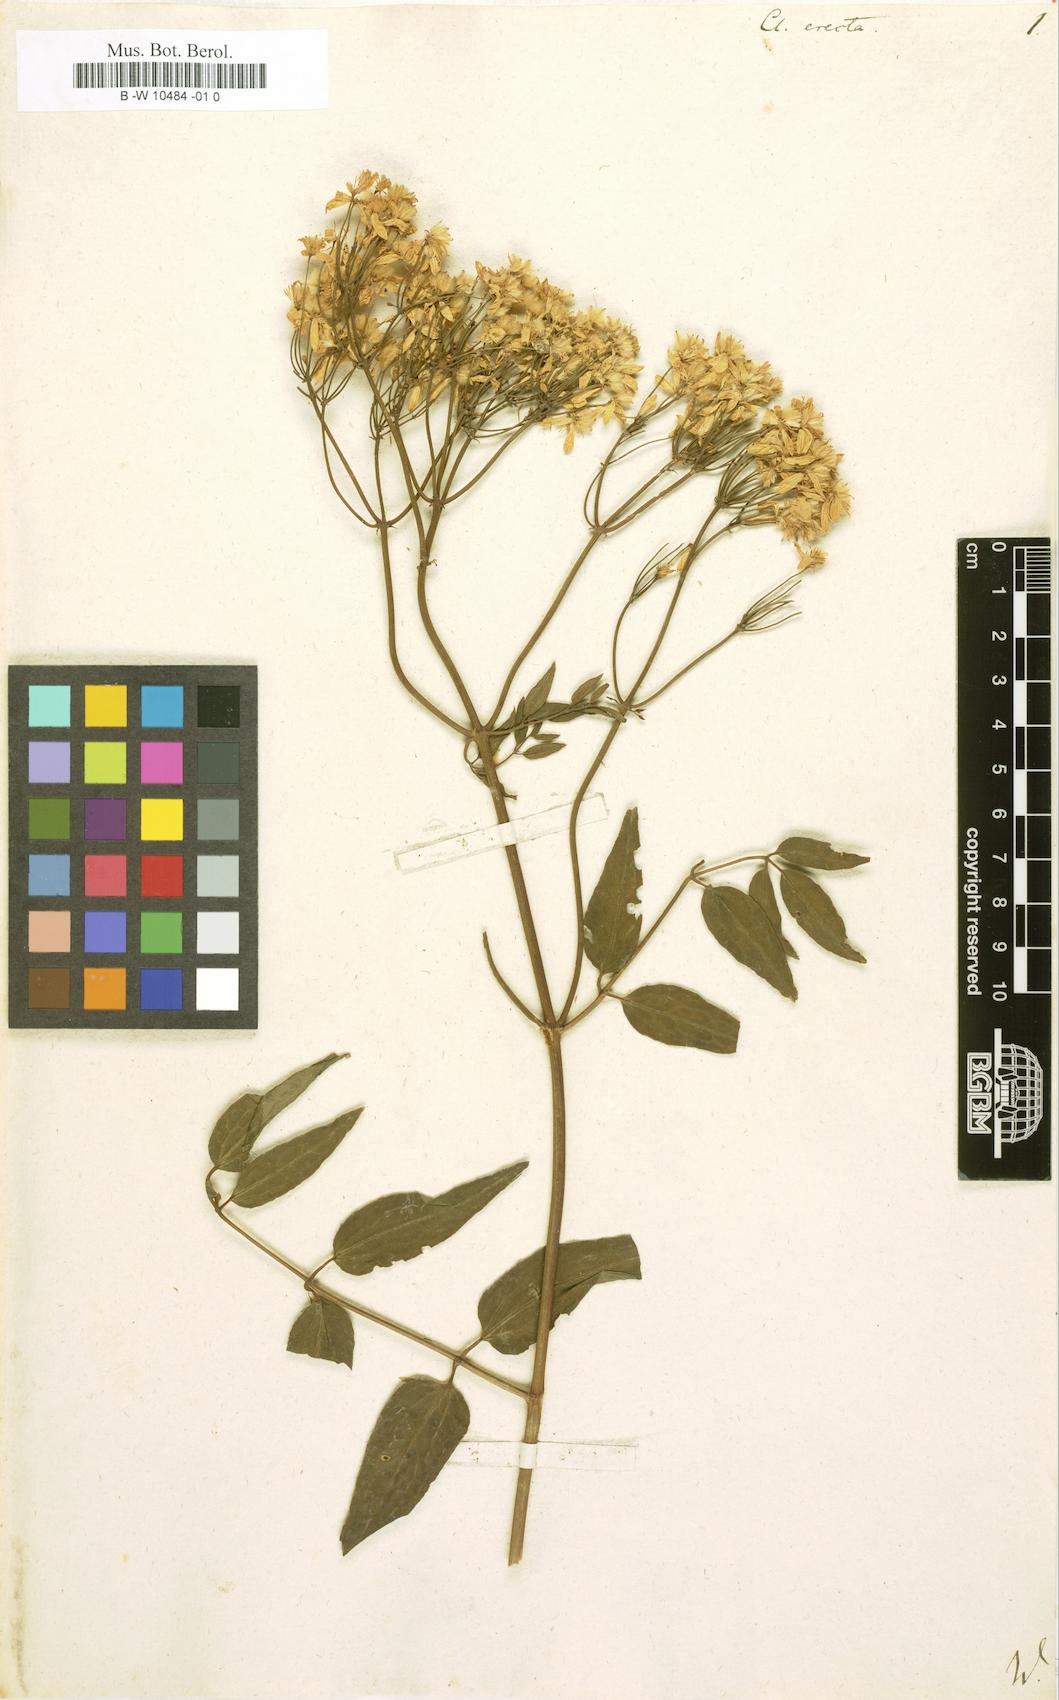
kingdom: Plantae
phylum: Tracheophyta
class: Magnoliopsida
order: Ranunculales
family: Ranunculaceae
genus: Clematis
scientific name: Clematis recta
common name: Ground clematis
